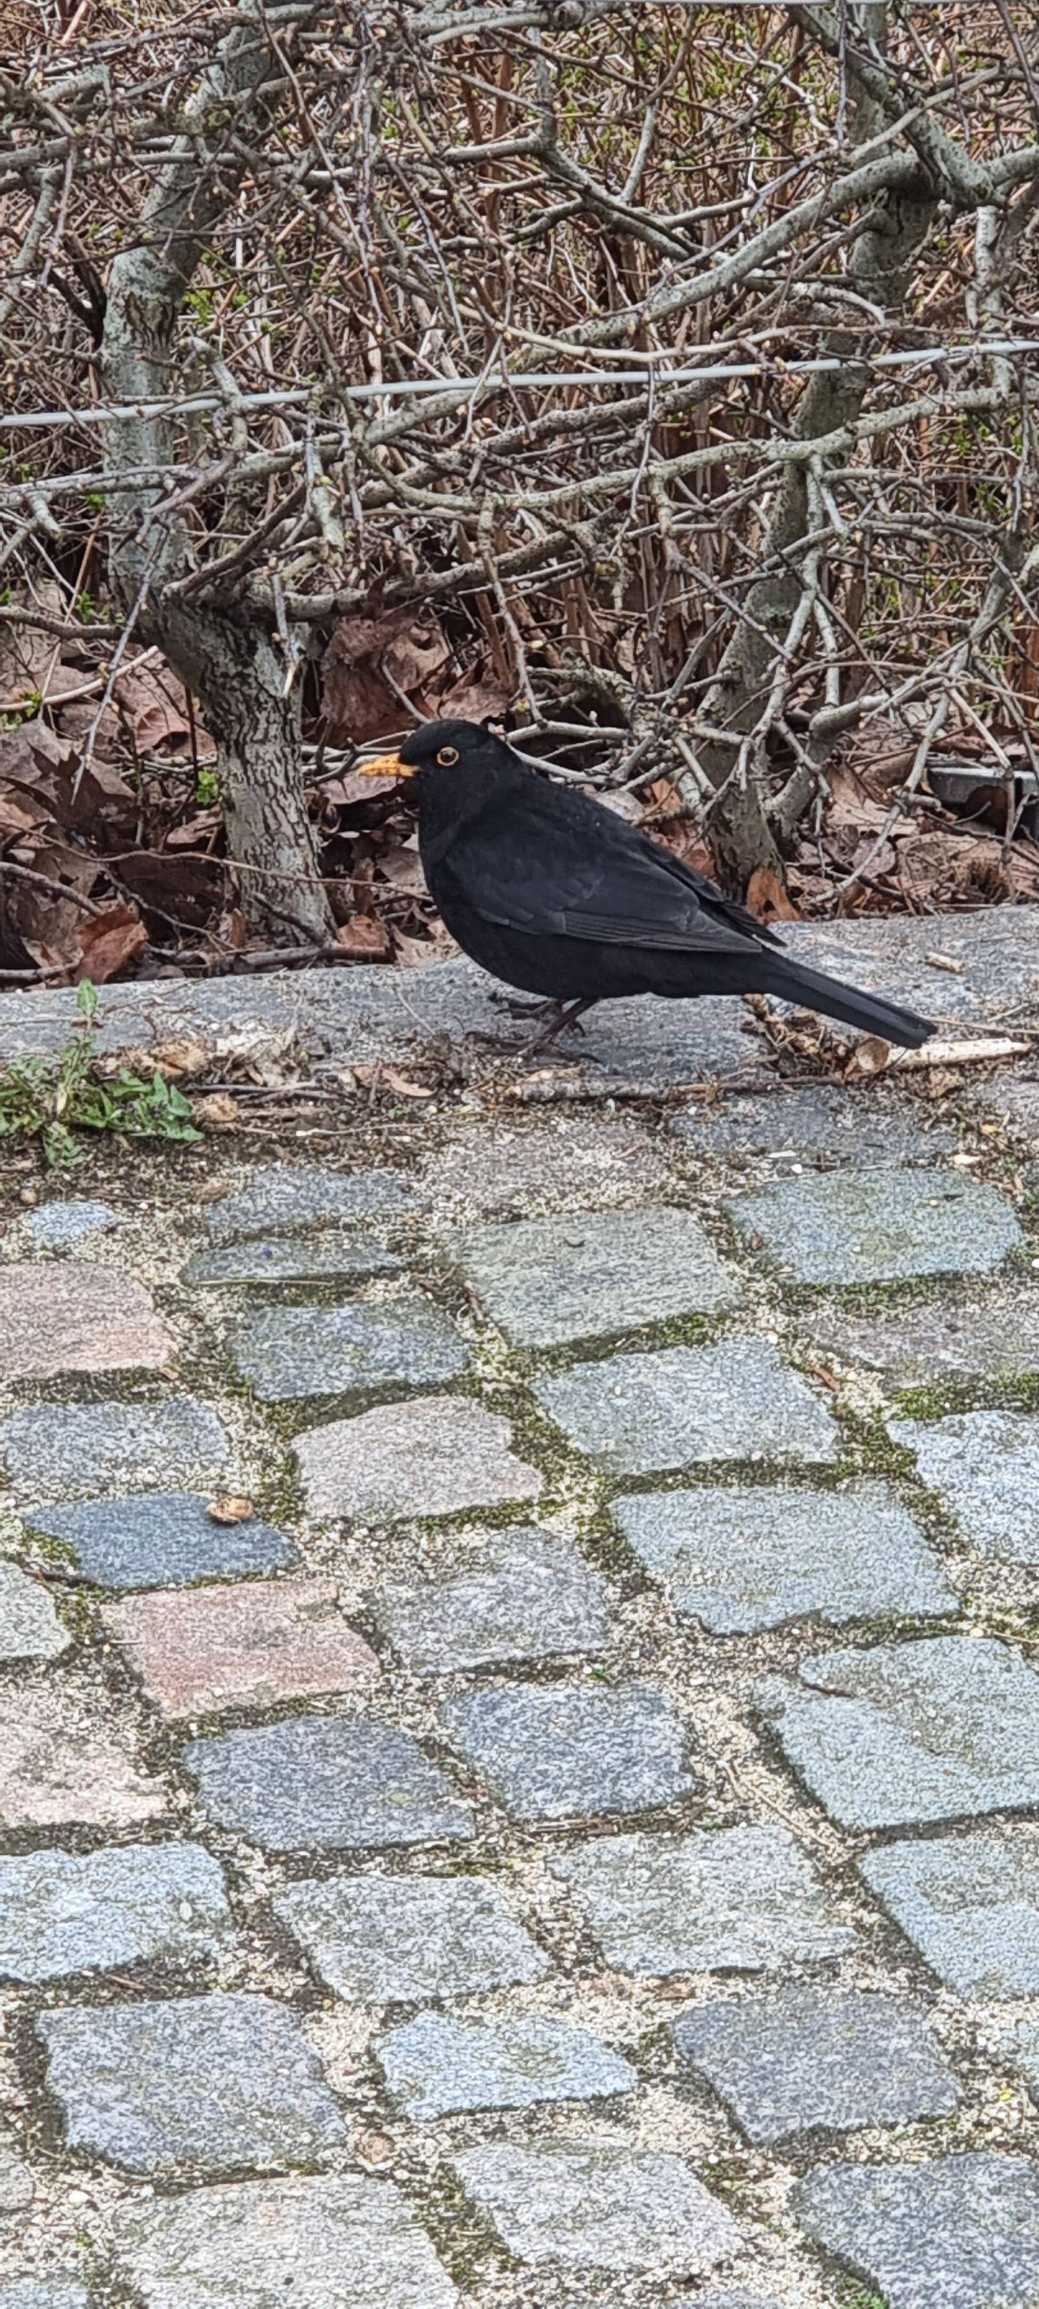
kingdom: Animalia
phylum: Chordata
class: Aves
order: Passeriformes
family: Turdidae
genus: Turdus
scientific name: Turdus merula
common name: Solsort
